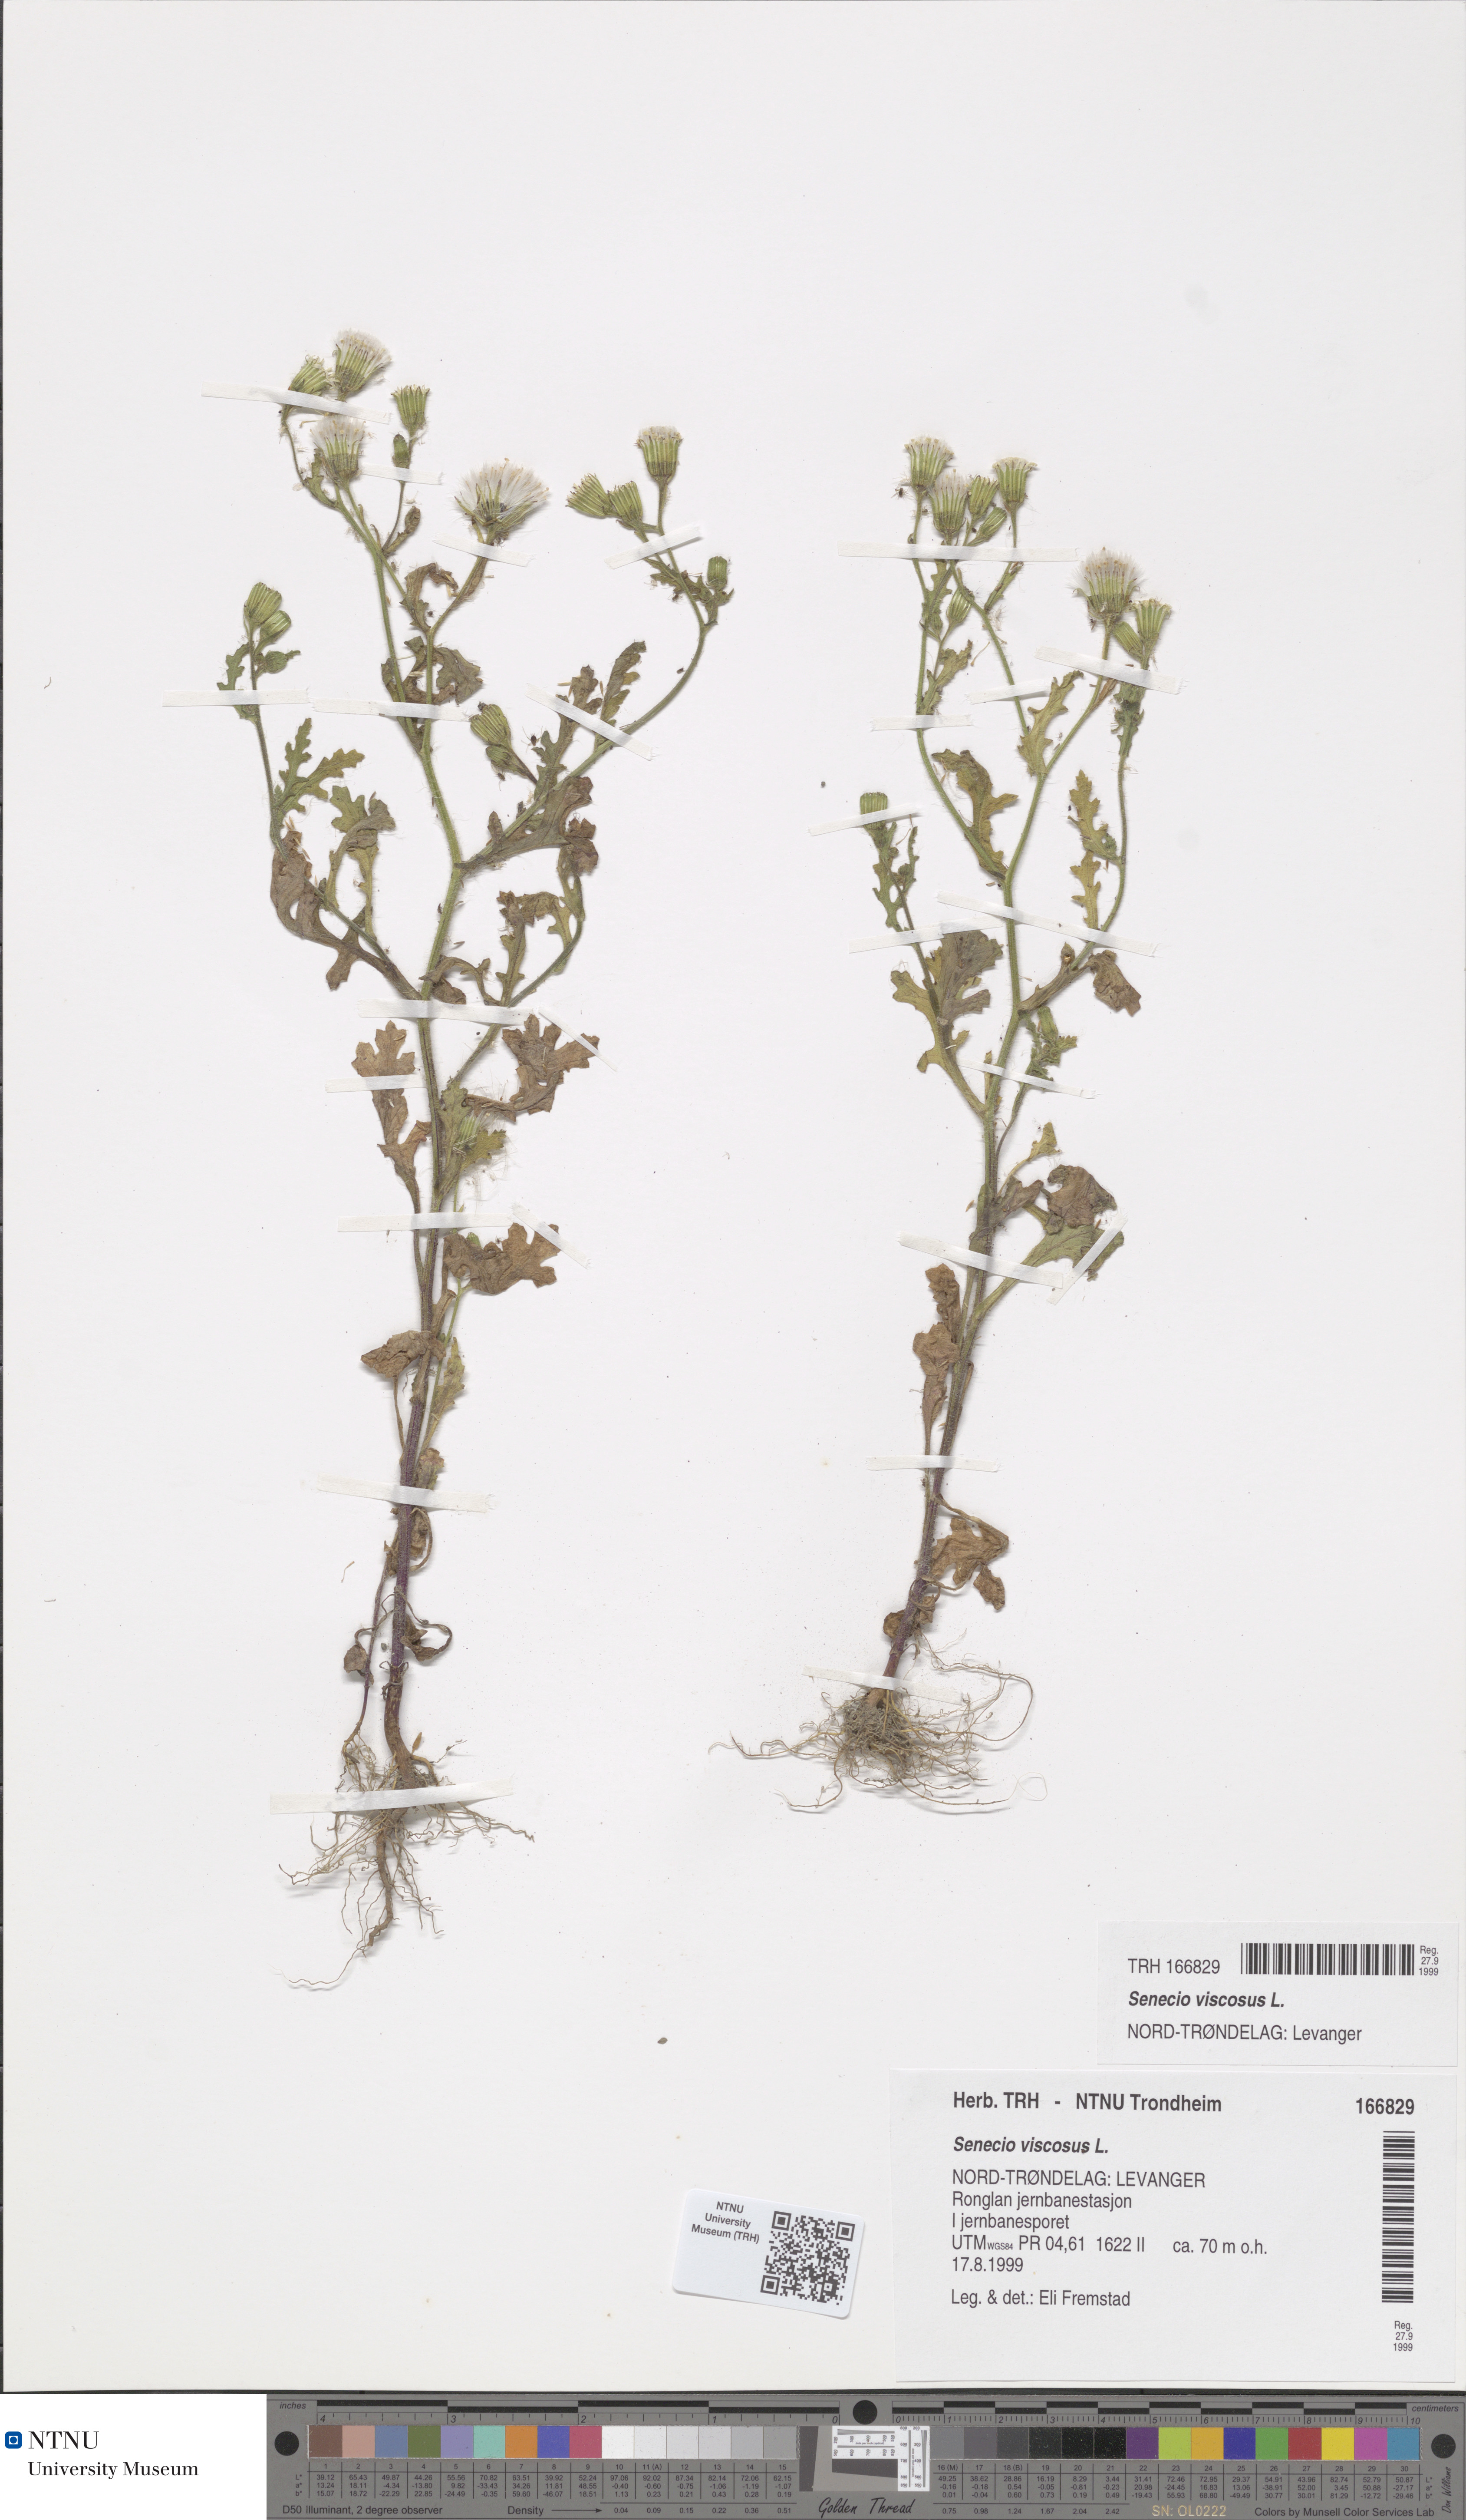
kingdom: Plantae
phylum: Tracheophyta
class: Magnoliopsida
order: Asterales
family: Asteraceae
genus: Senecio
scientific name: Senecio viscosus
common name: Sticky groundsel
